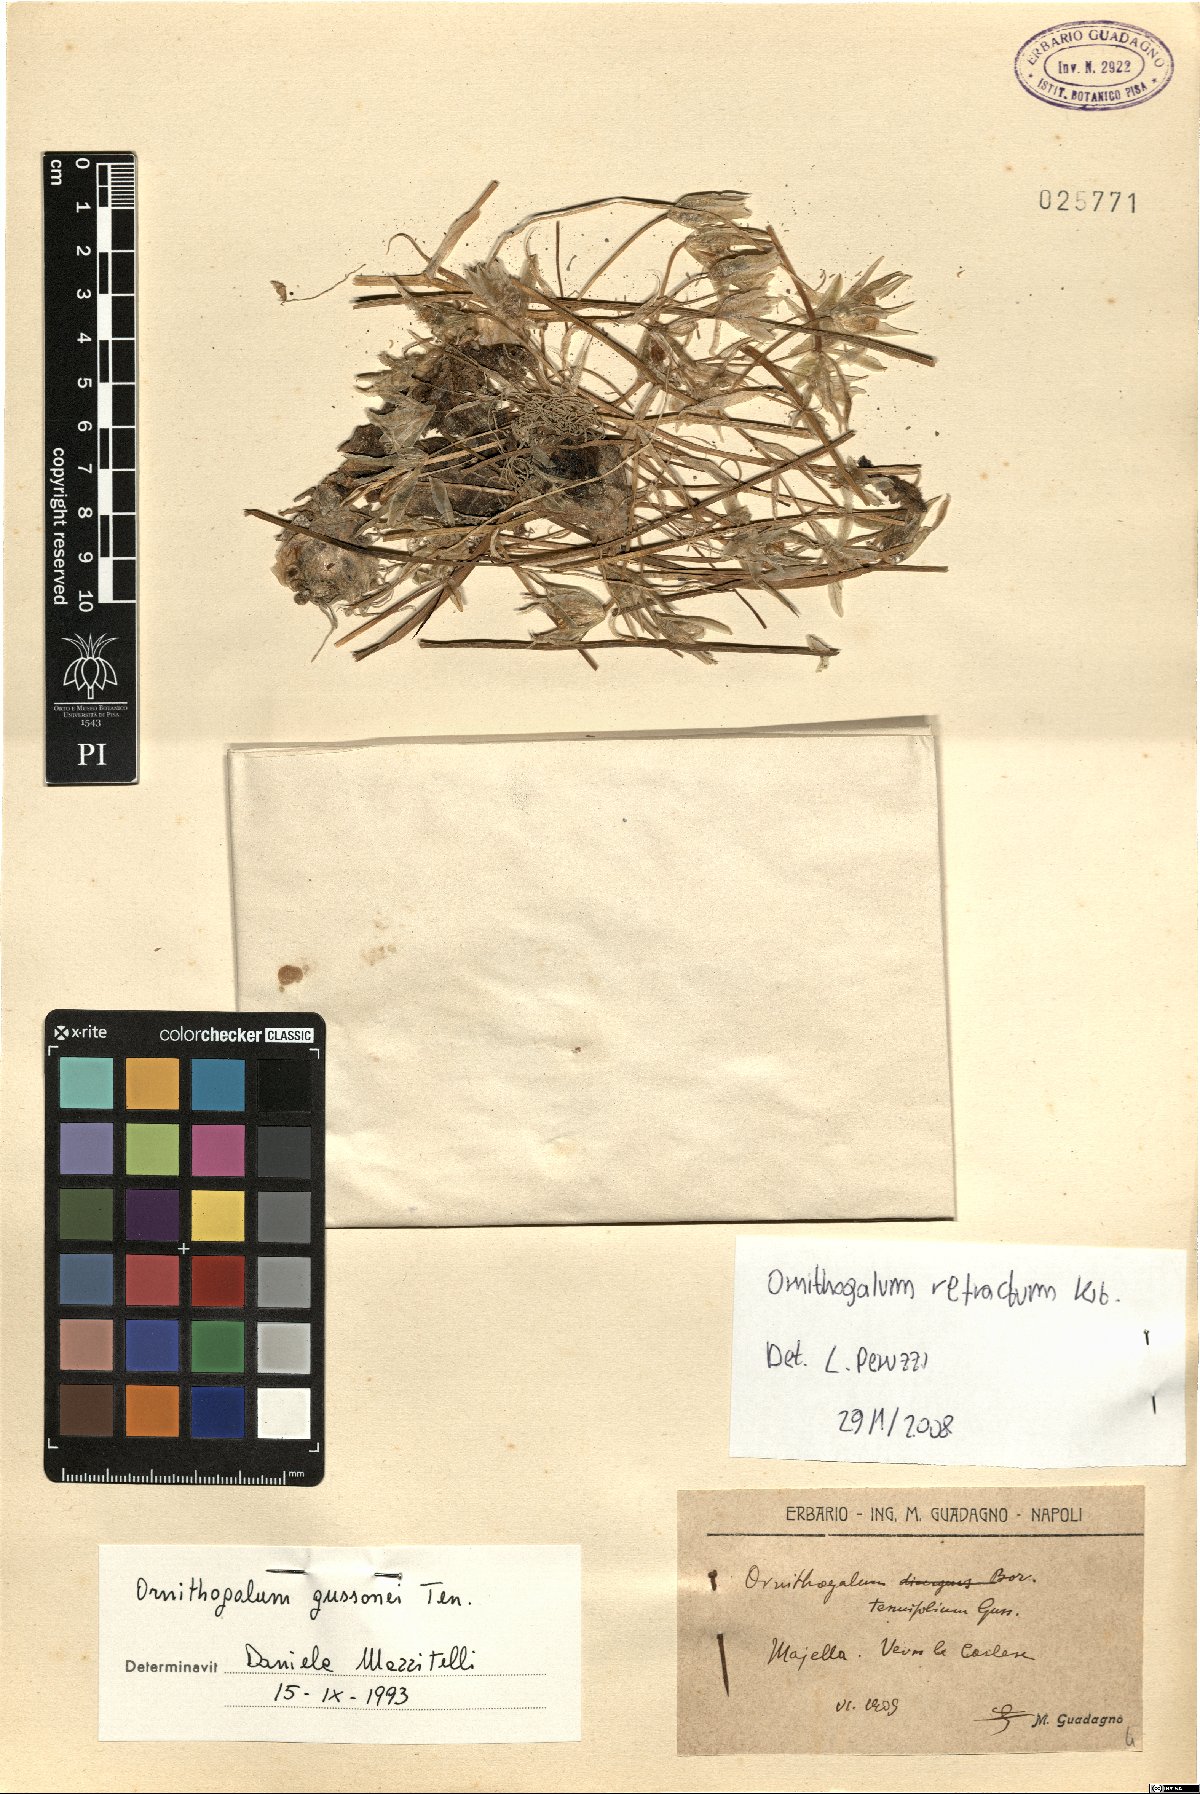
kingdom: Plantae
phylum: Tracheophyta
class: Liliopsida
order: Asparagales
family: Asparagaceae
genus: Ornithogalum
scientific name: Ornithogalum refractum
